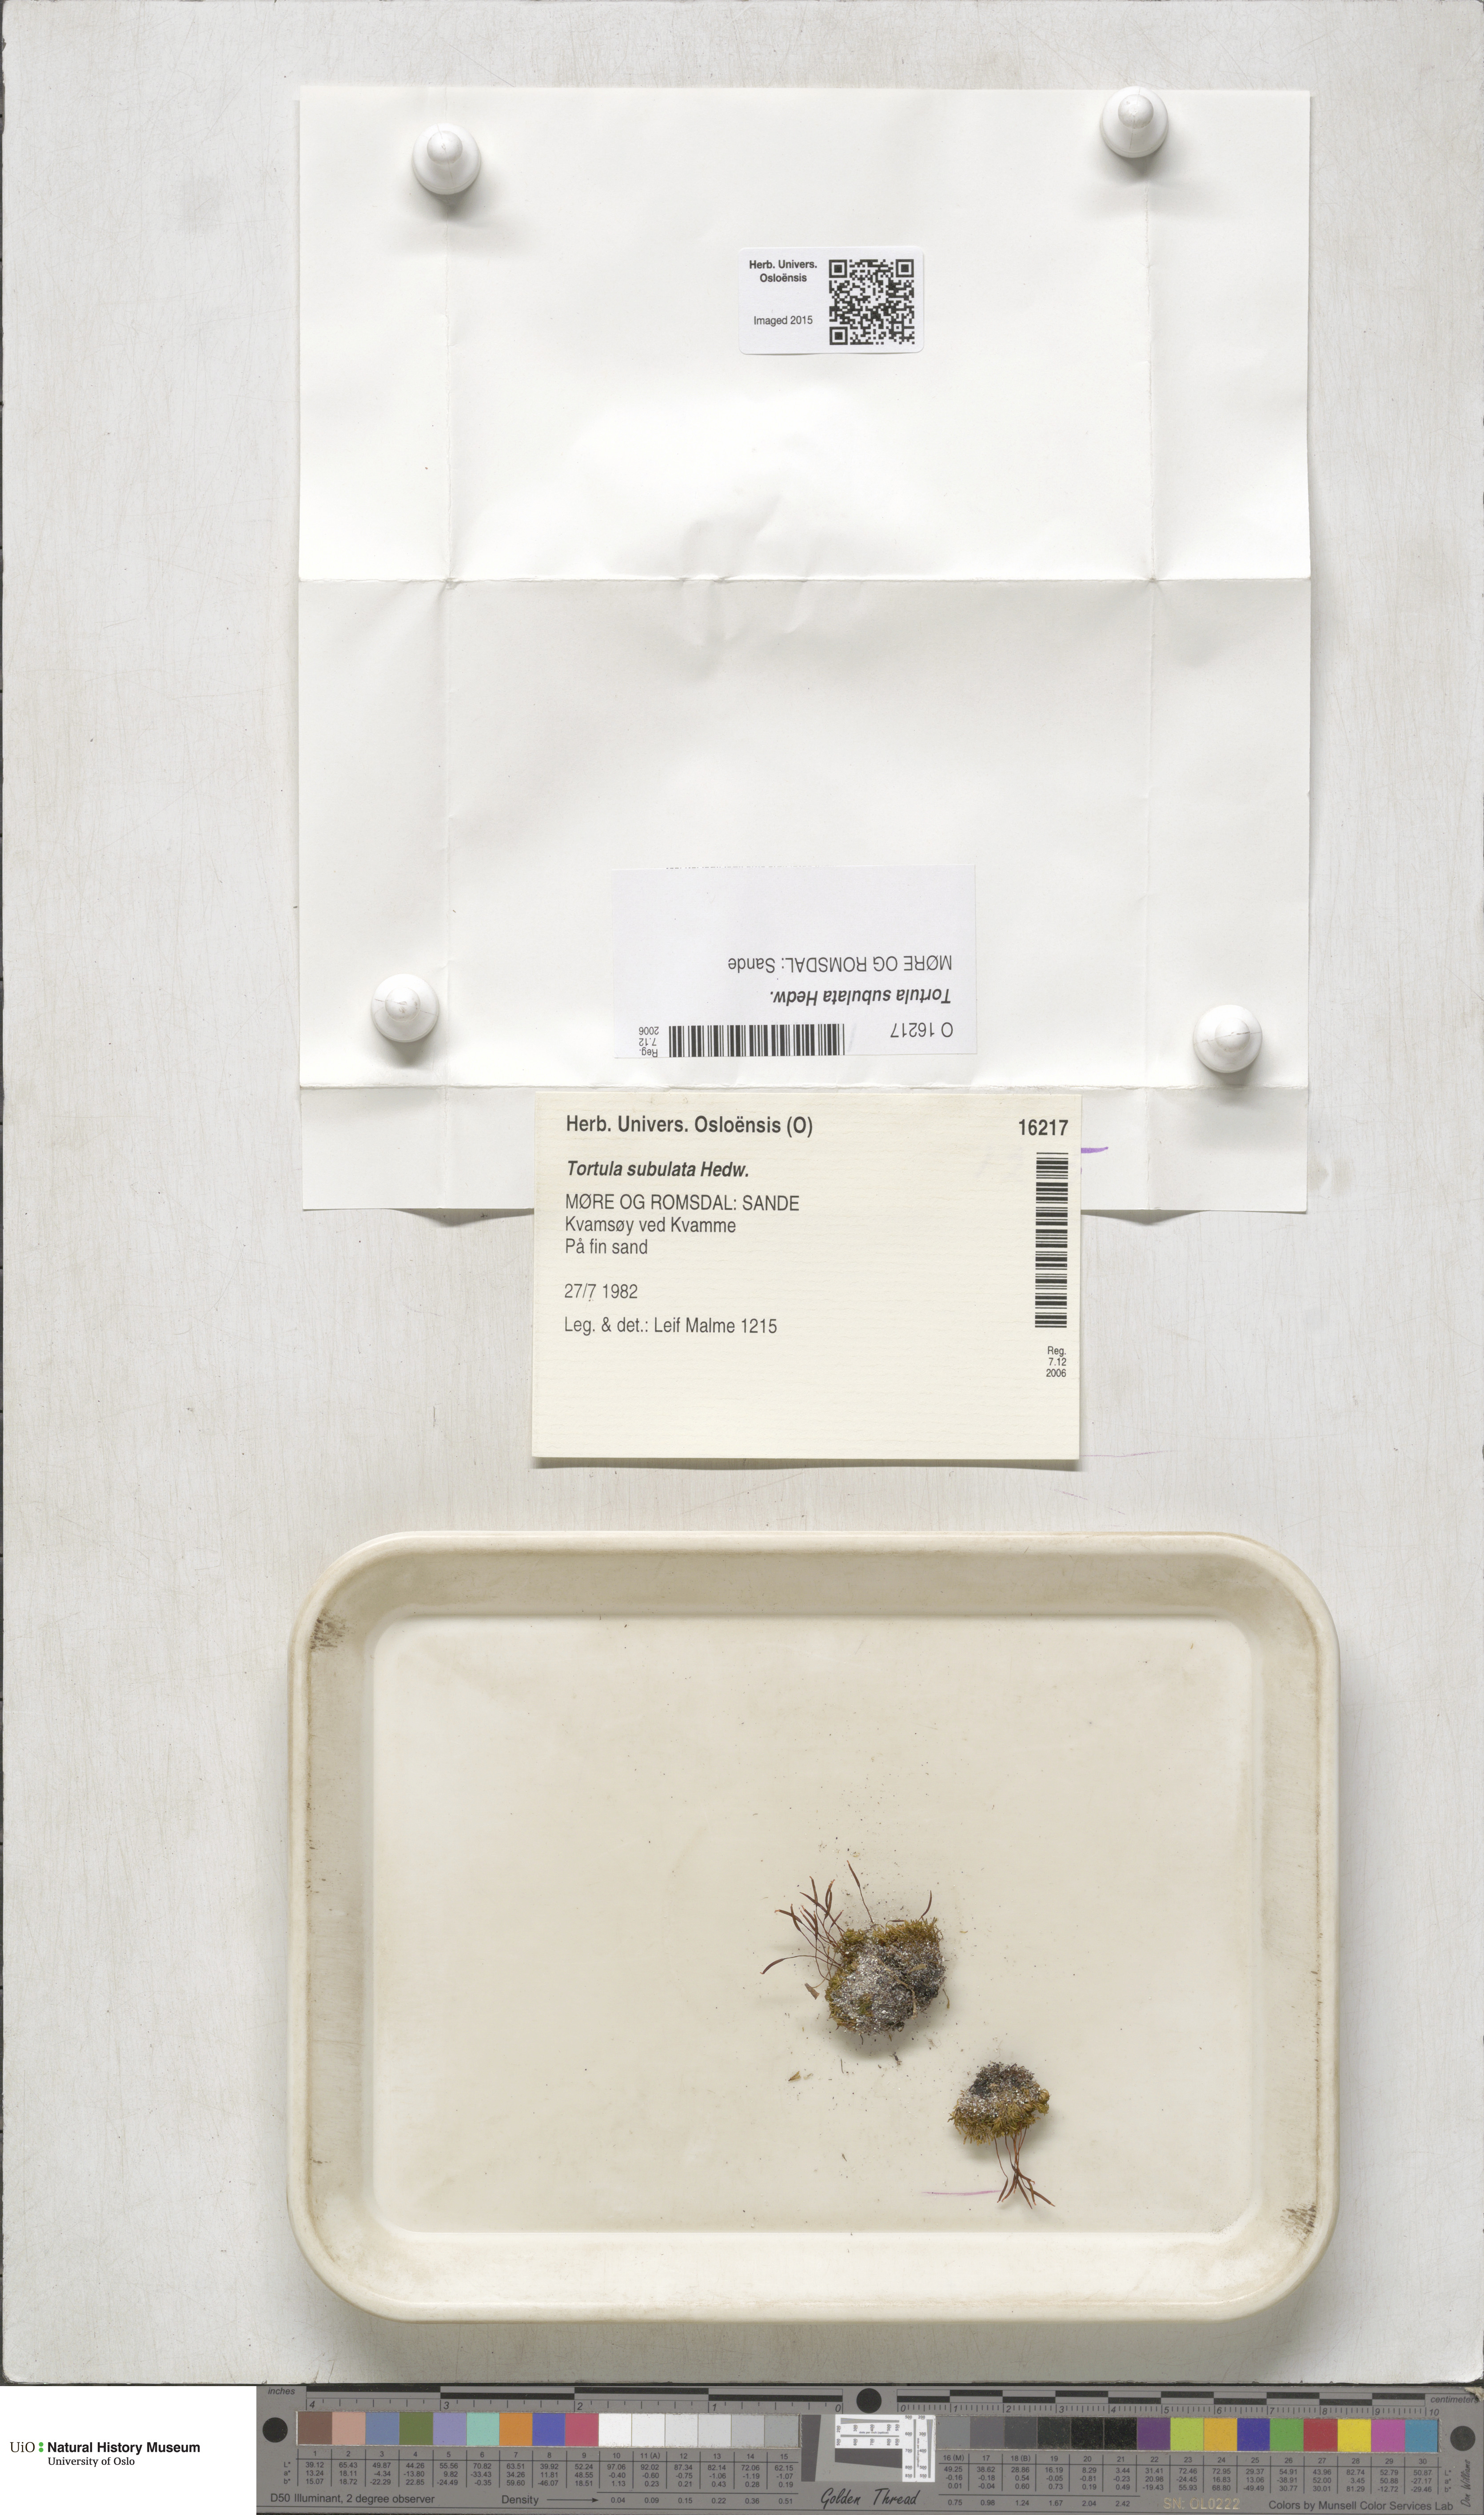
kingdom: Plantae
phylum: Bryophyta
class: Bryopsida
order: Pottiales
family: Pottiaceae
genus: Tortula
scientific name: Tortula subulata
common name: Upright screw-moss
